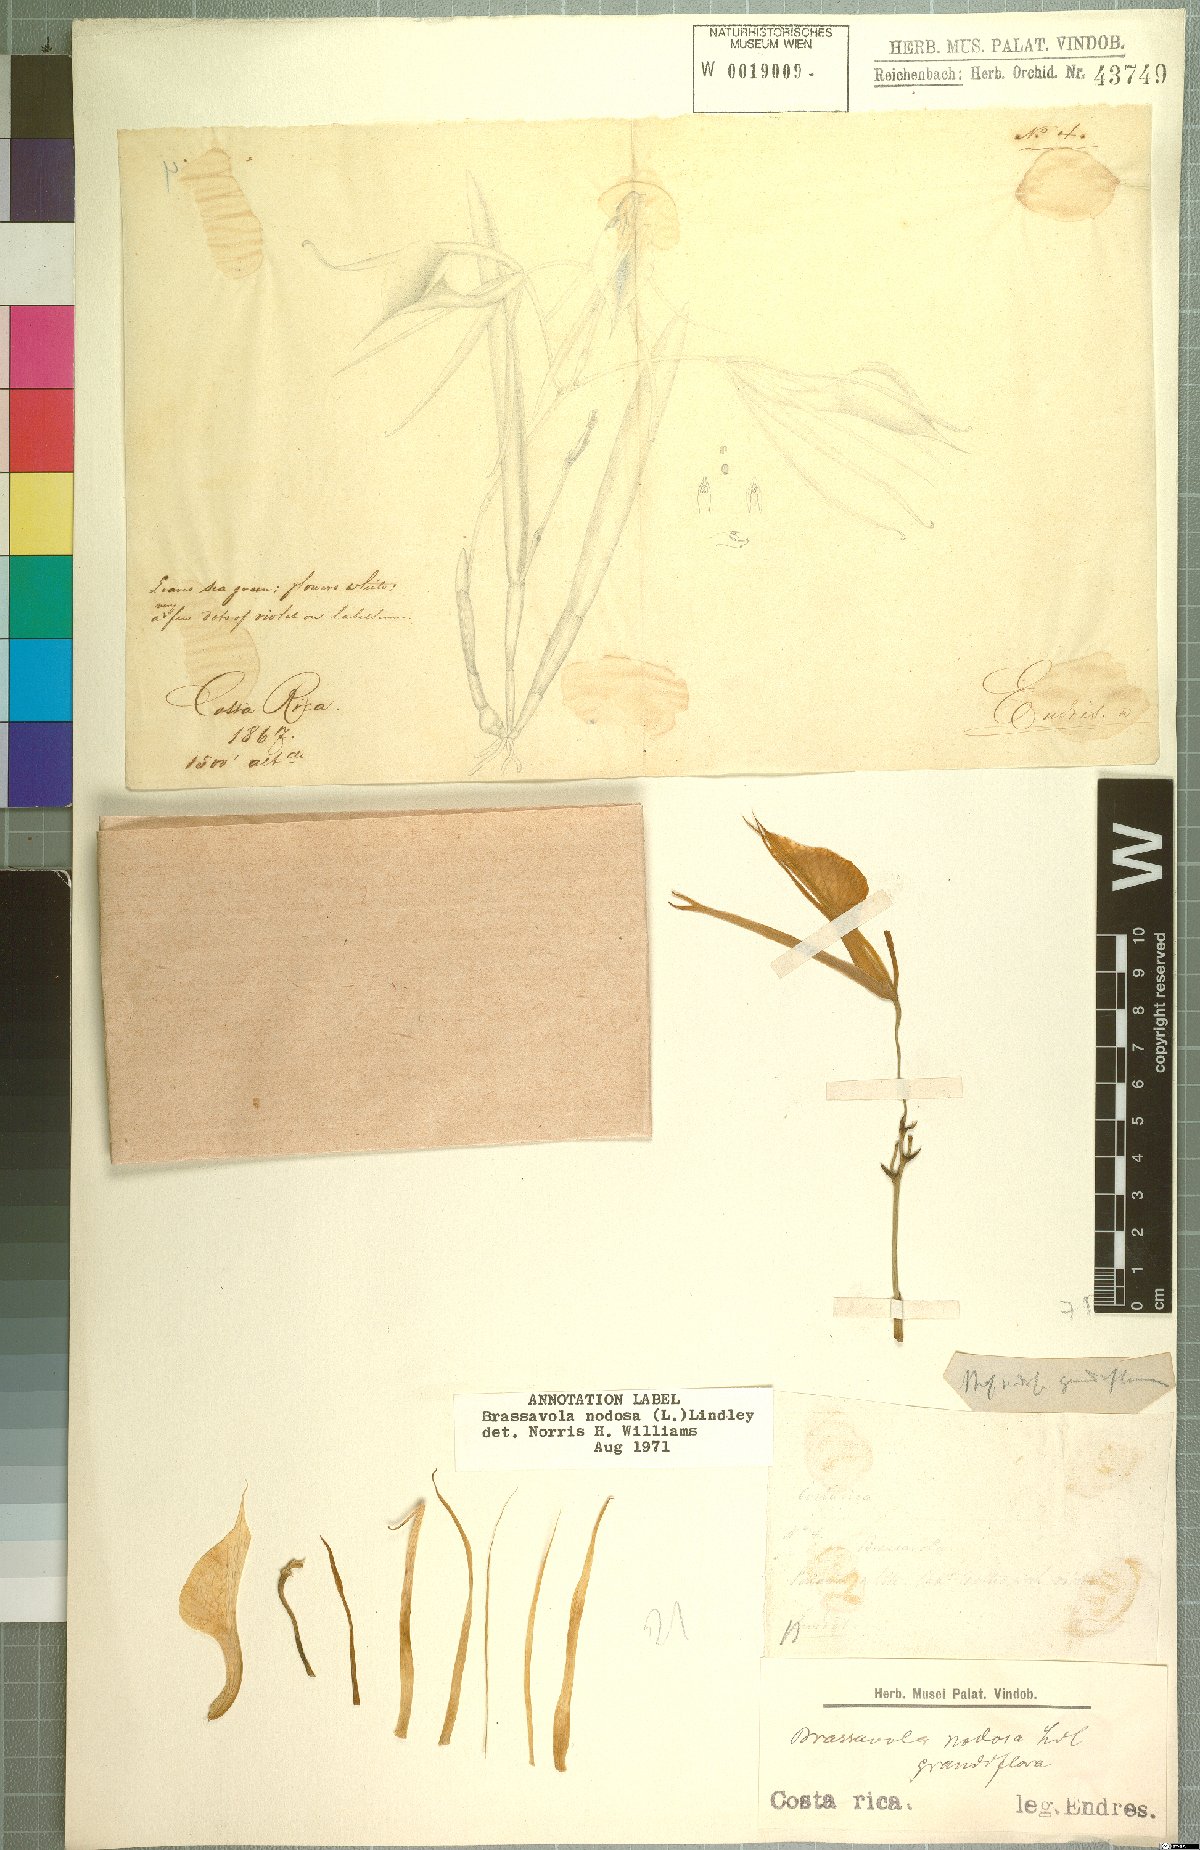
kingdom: Plantae
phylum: Tracheophyta
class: Liliopsida
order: Asparagales
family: Orchidaceae
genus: Brassavola
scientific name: Brassavola nodosa
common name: Lady of the night
